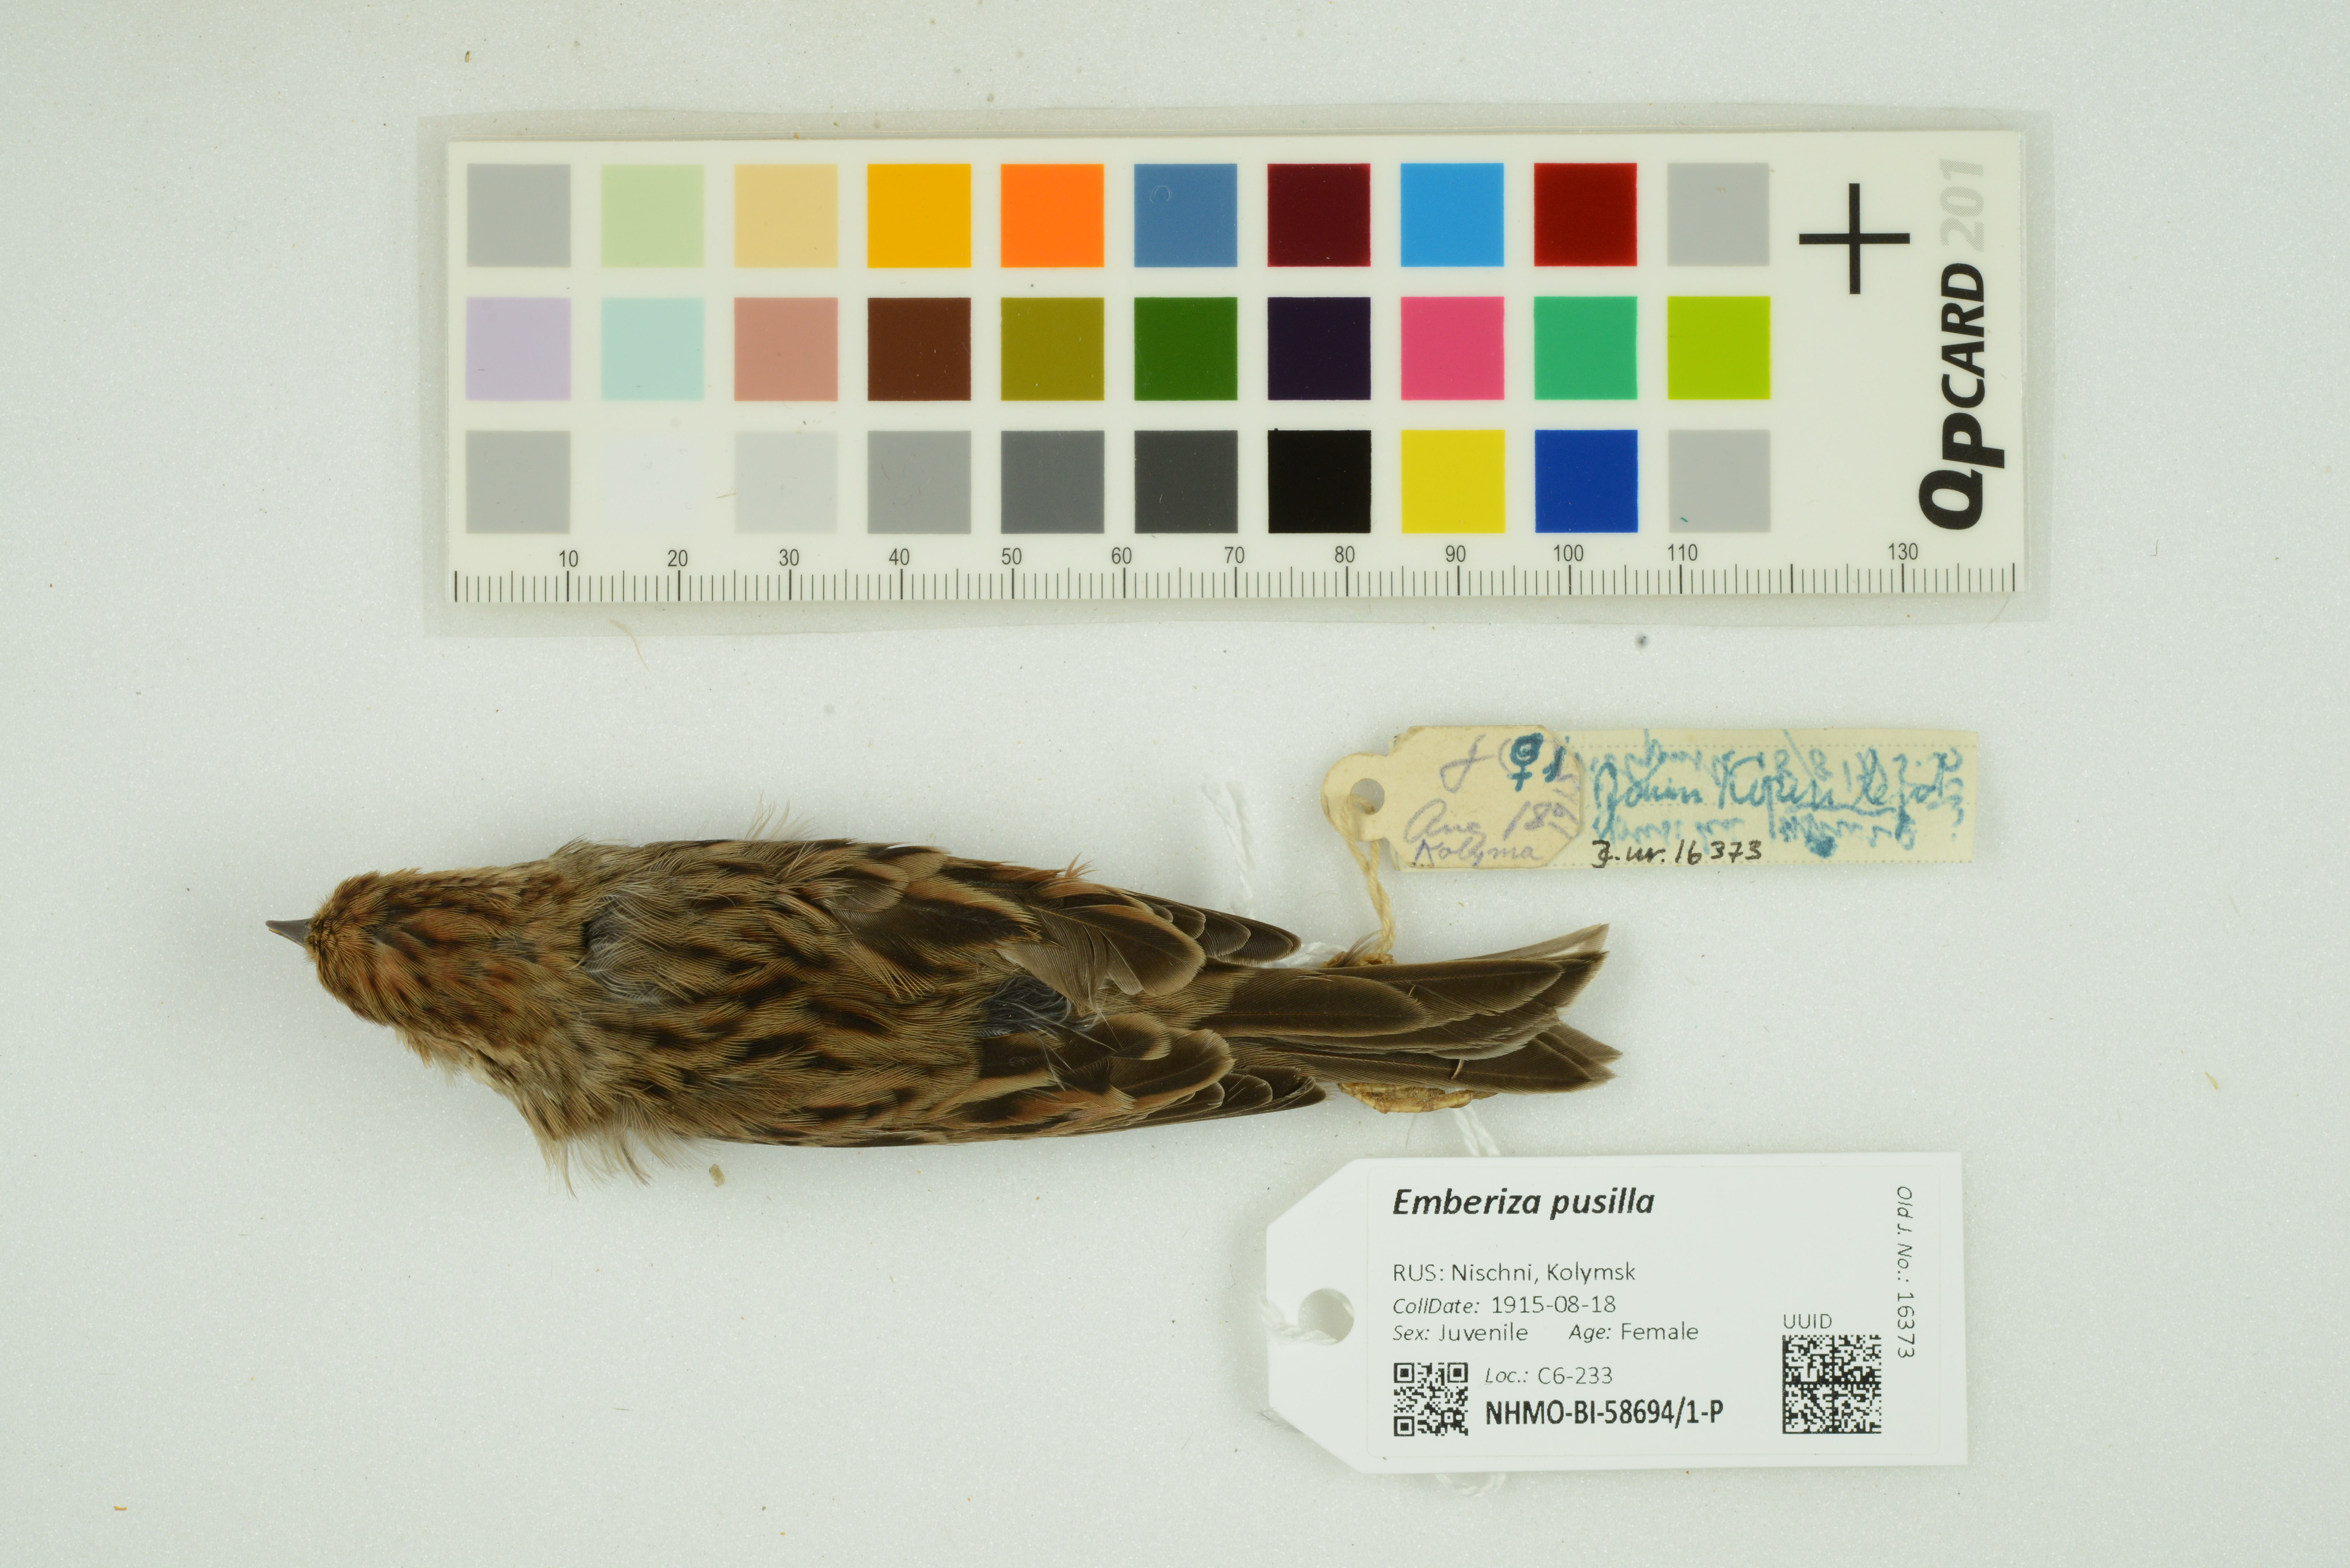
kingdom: Animalia
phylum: Chordata
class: Aves
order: Passeriformes
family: Emberizidae
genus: Emberiza
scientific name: Emberiza pusilla
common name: Little bunting
